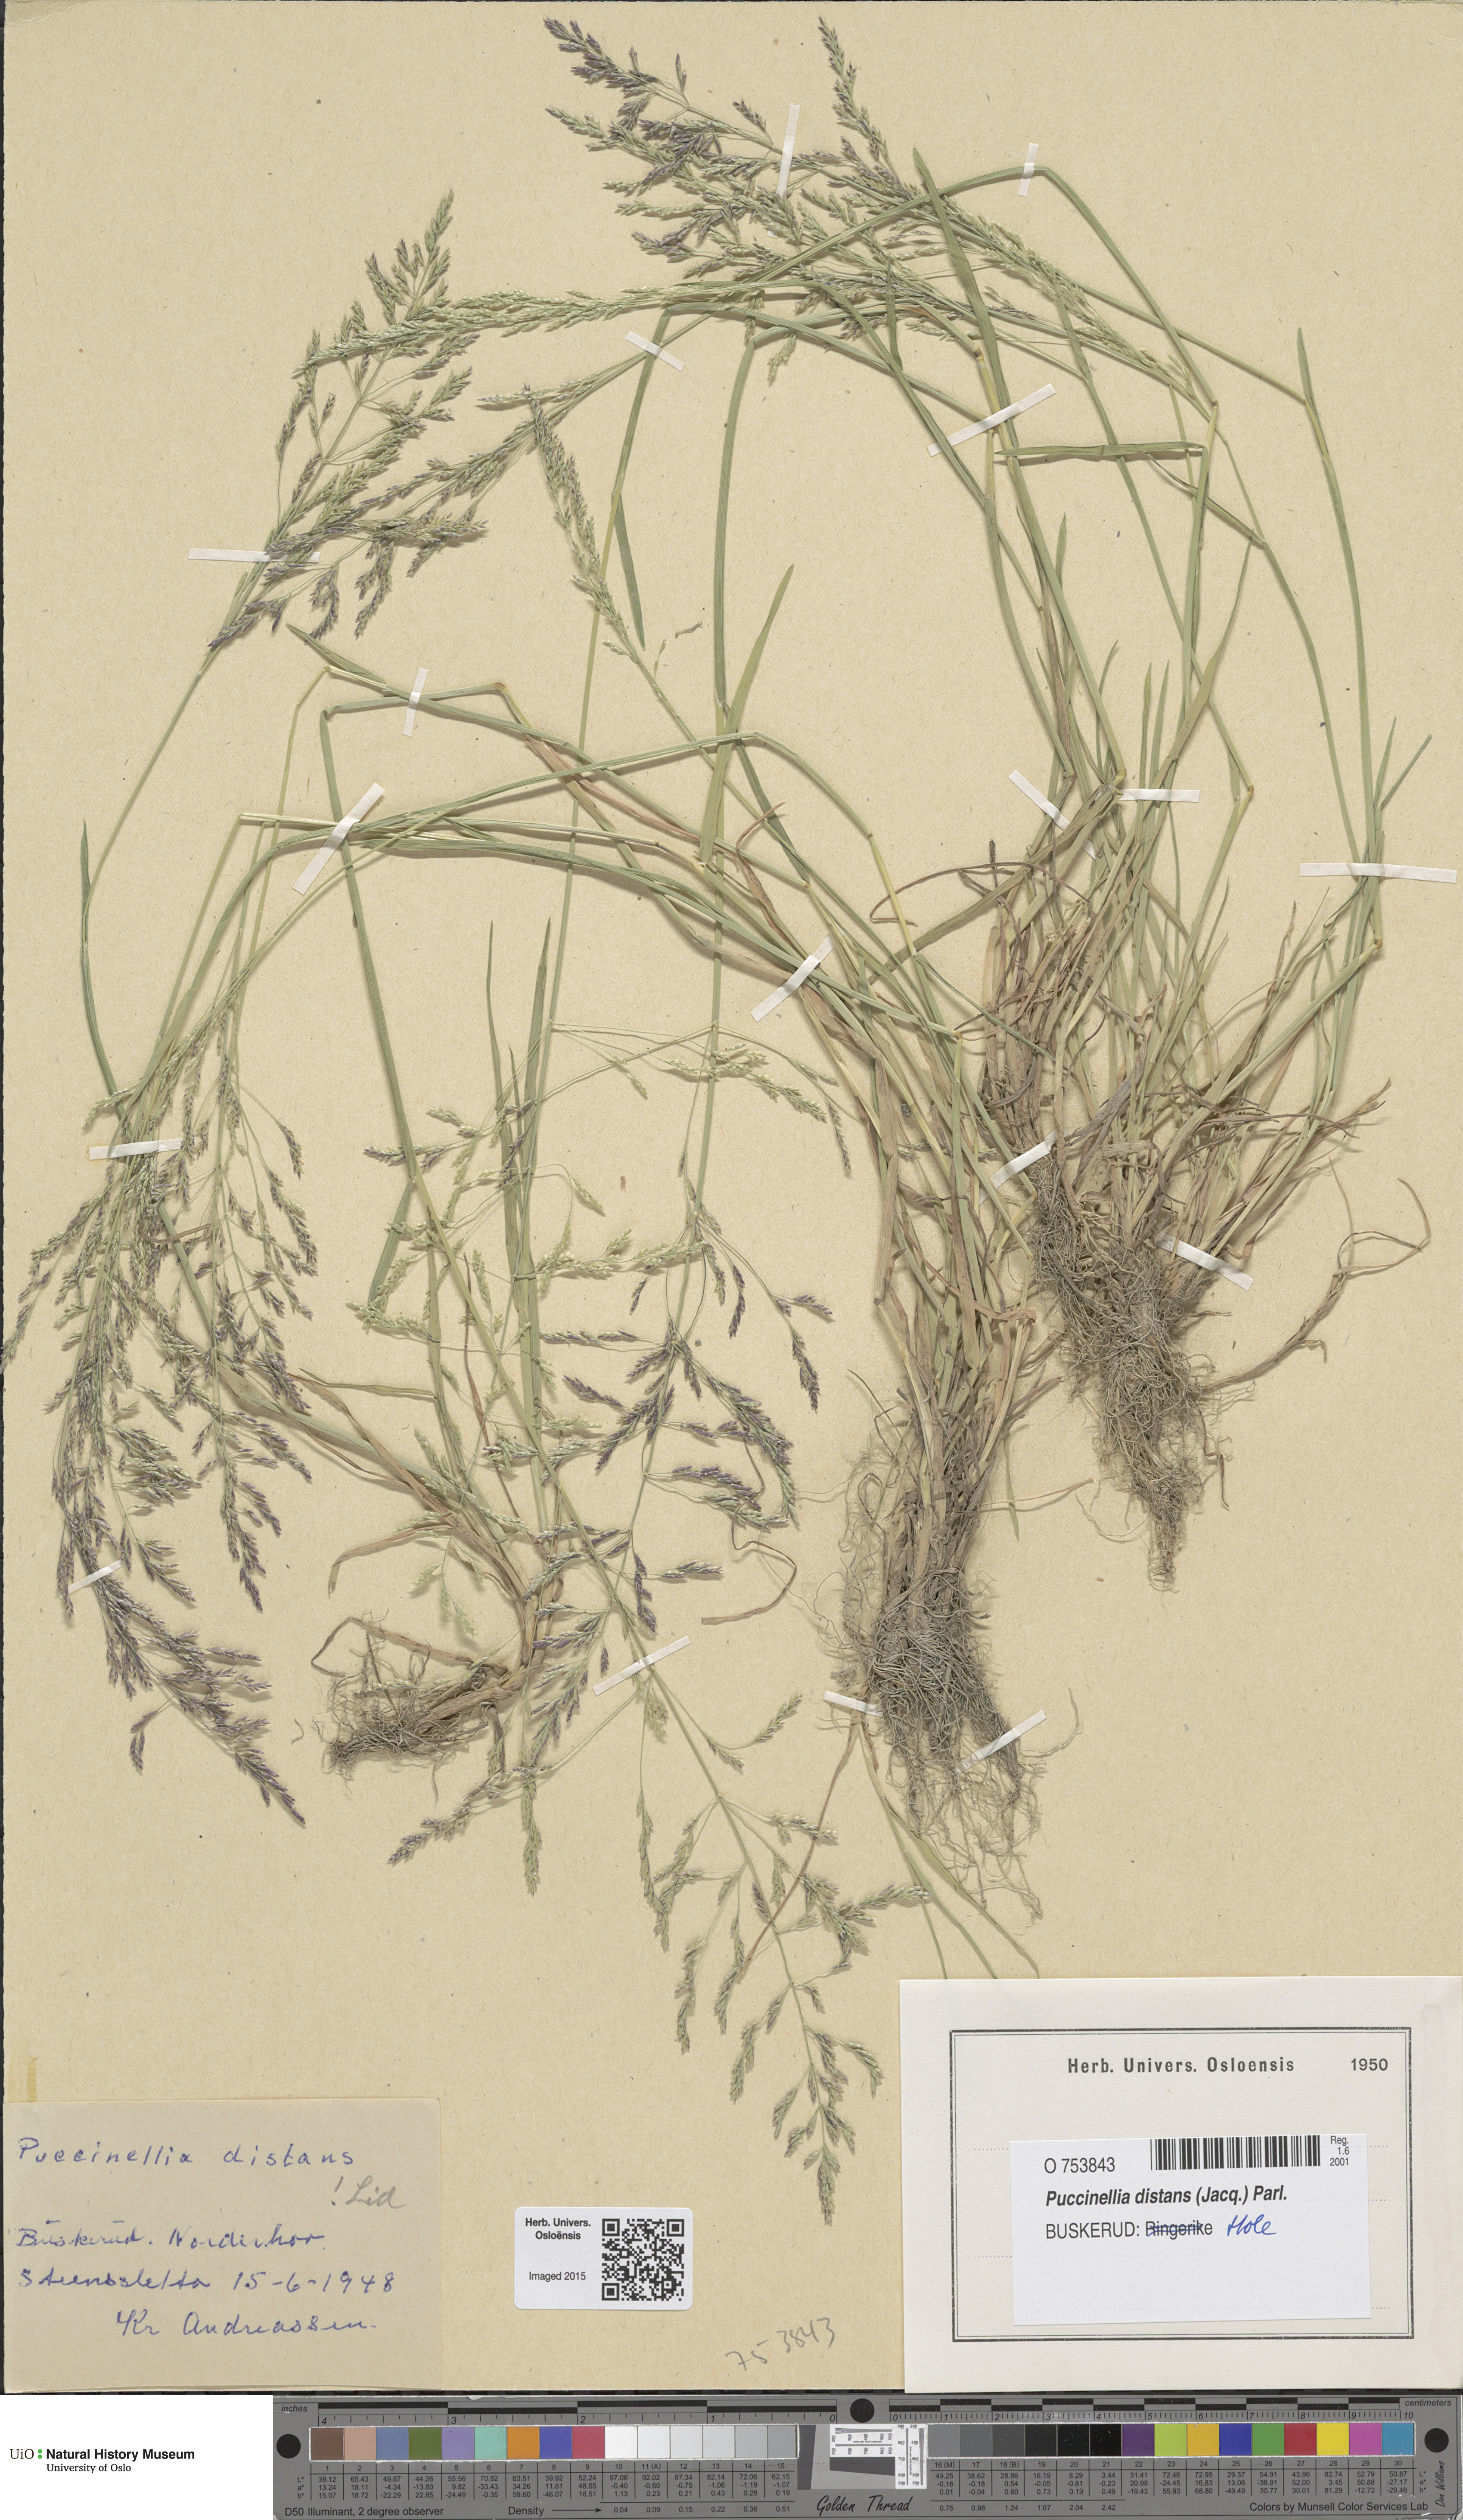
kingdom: Plantae
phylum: Tracheophyta
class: Liliopsida
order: Poales
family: Poaceae
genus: Puccinellia
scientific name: Puccinellia distans
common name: Weeping alkaligrass
